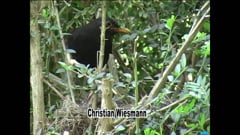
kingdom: Animalia
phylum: Chordata
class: Aves
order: Passeriformes
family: Turdidae
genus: Turdus
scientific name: Turdus merula
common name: Common blackbird
